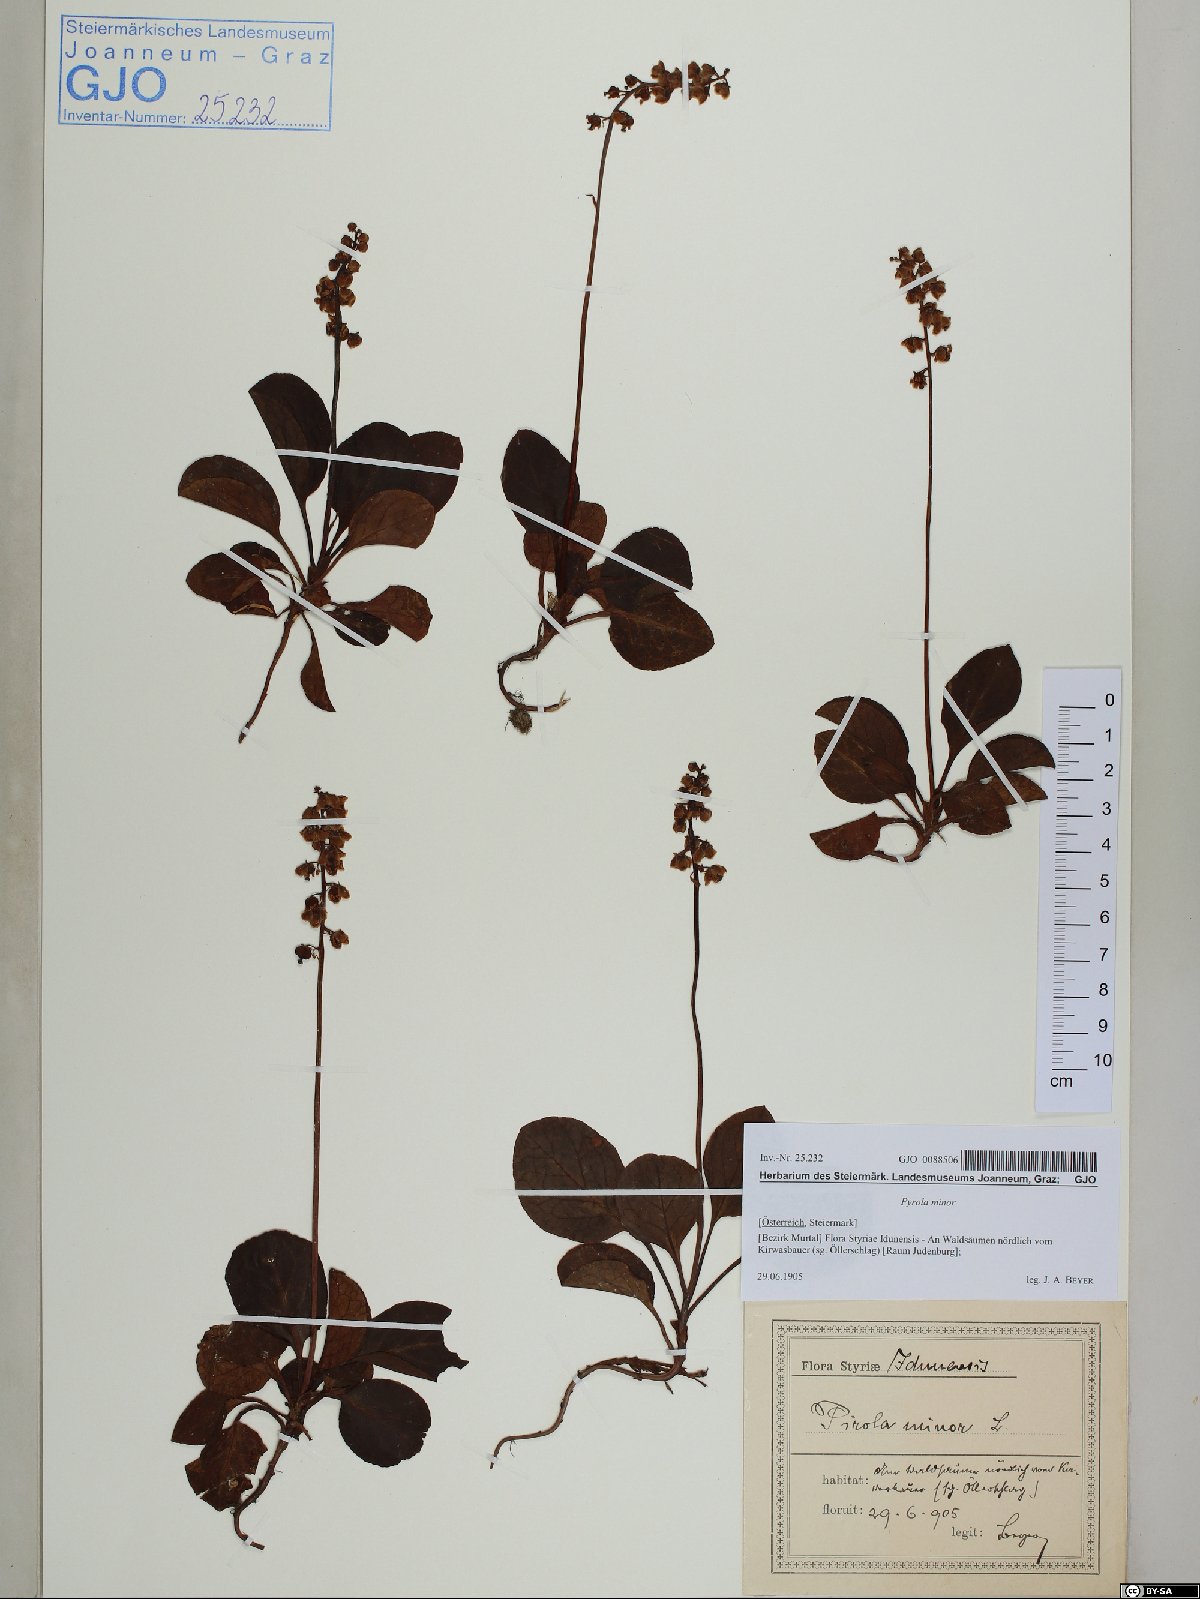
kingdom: Plantae
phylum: Tracheophyta
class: Magnoliopsida
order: Ericales
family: Ericaceae
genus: Pyrola
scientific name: Pyrola minor
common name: Common wintergreen
